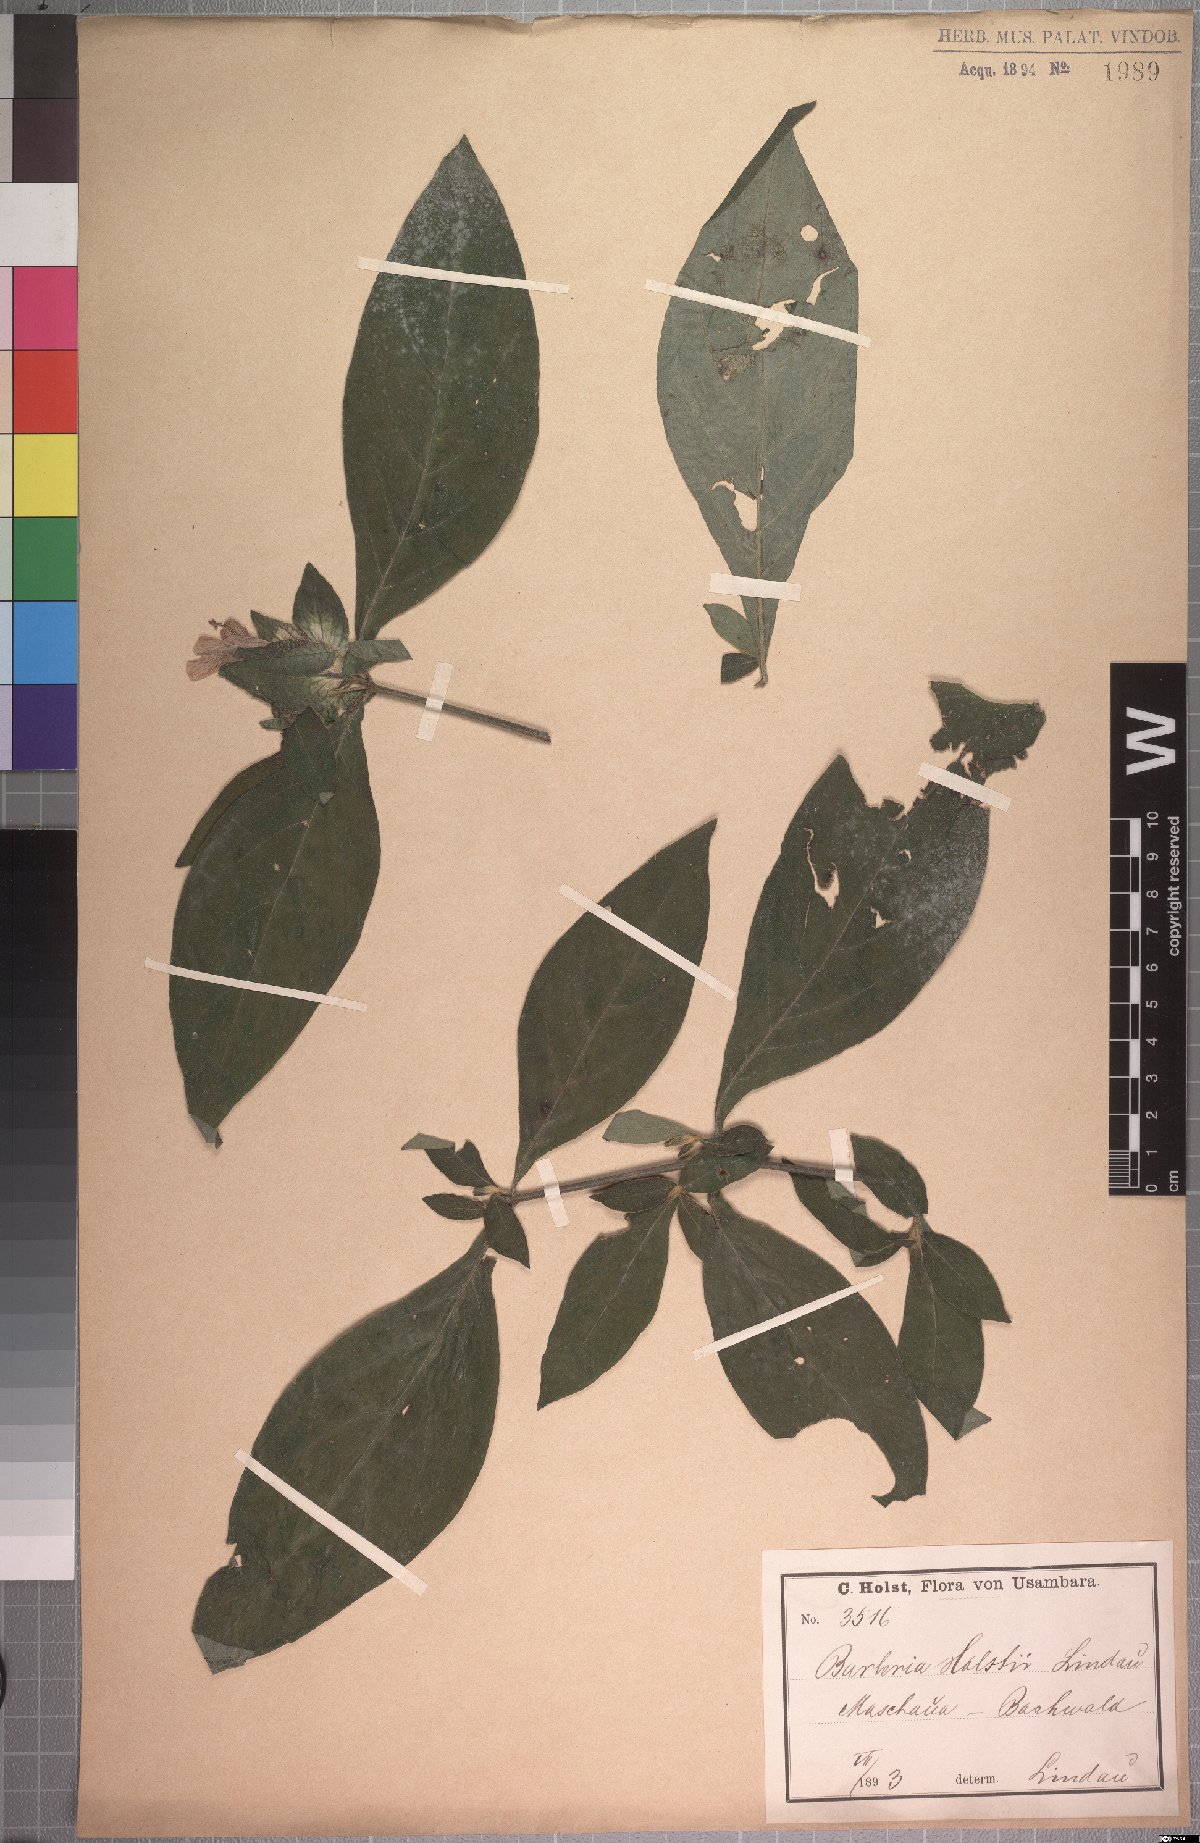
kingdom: Plantae
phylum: Tracheophyta
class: Magnoliopsida
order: Lamiales
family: Acanthaceae
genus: Barleria
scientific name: Barleria holstii
